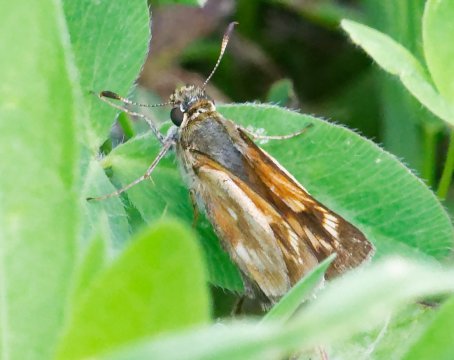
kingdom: Animalia
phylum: Arthropoda
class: Insecta
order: Lepidoptera
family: Hesperiidae
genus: Polites
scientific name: Polites
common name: Long Dash Skipper
